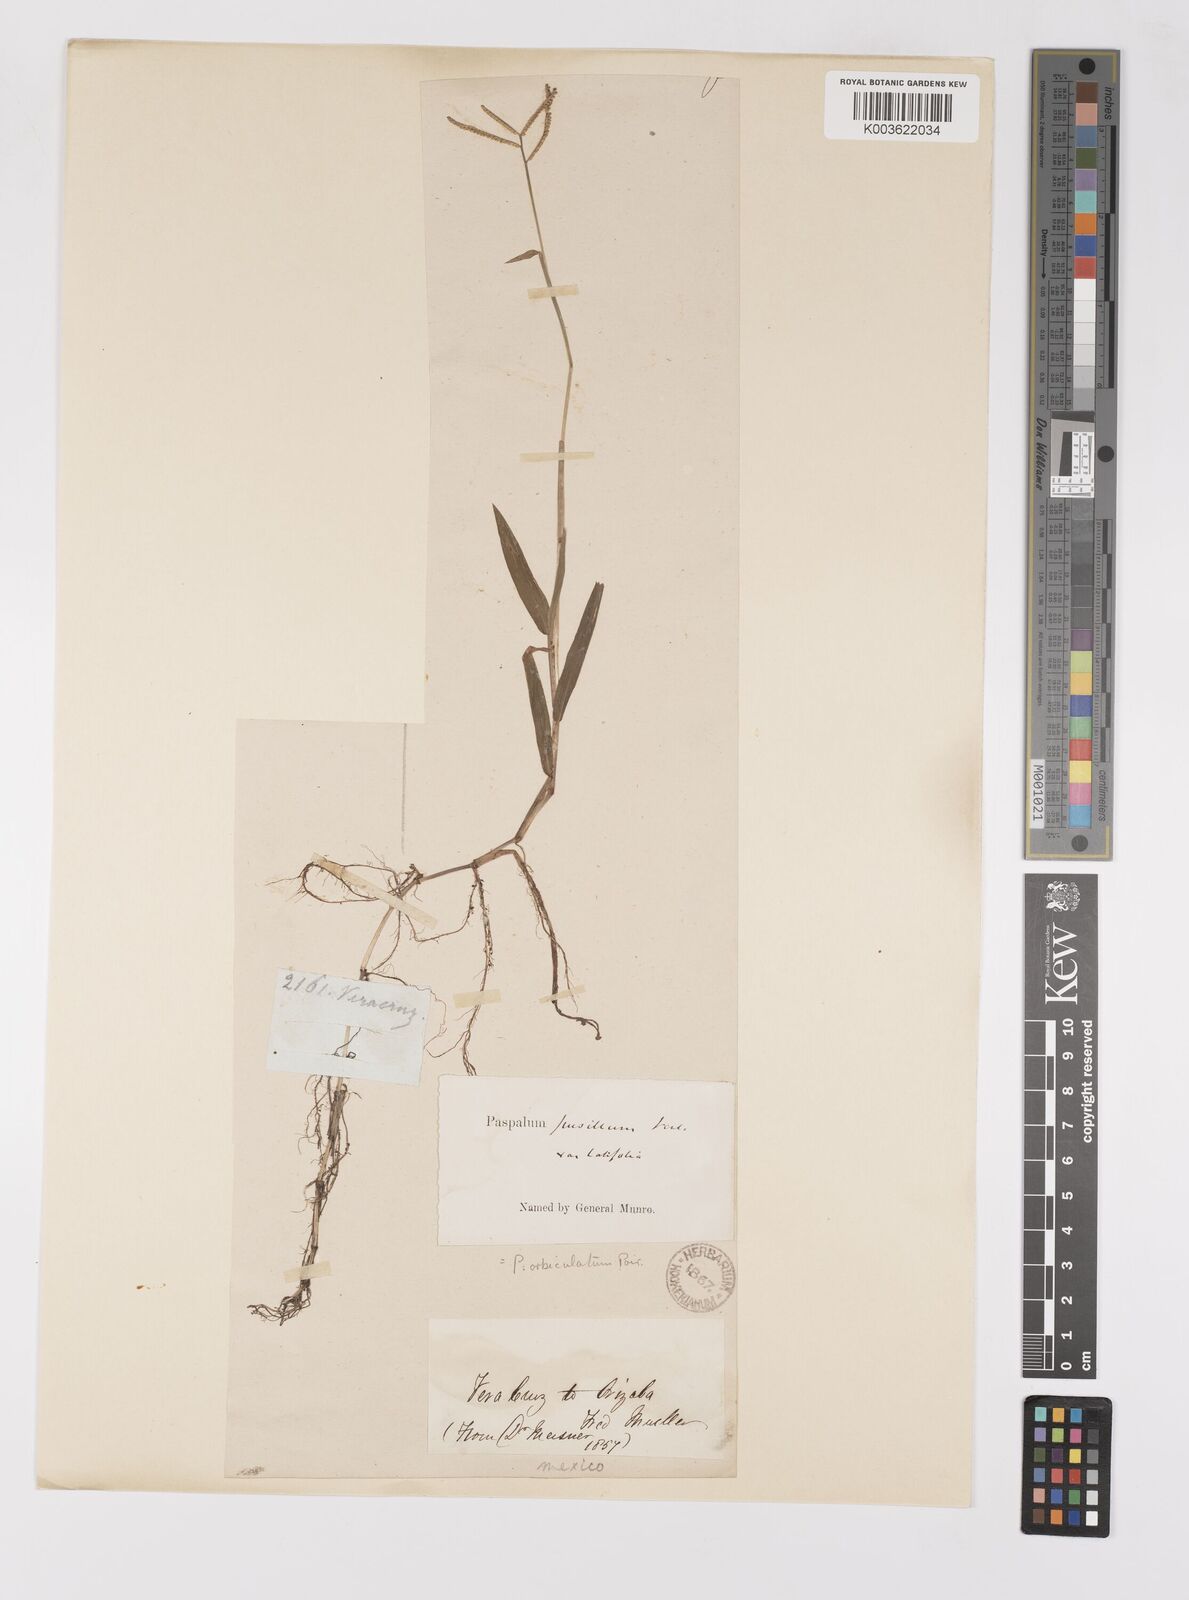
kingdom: Plantae
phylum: Tracheophyta
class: Liliopsida
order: Poales
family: Poaceae
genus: Paspalum
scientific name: Paspalum orbiculatum
